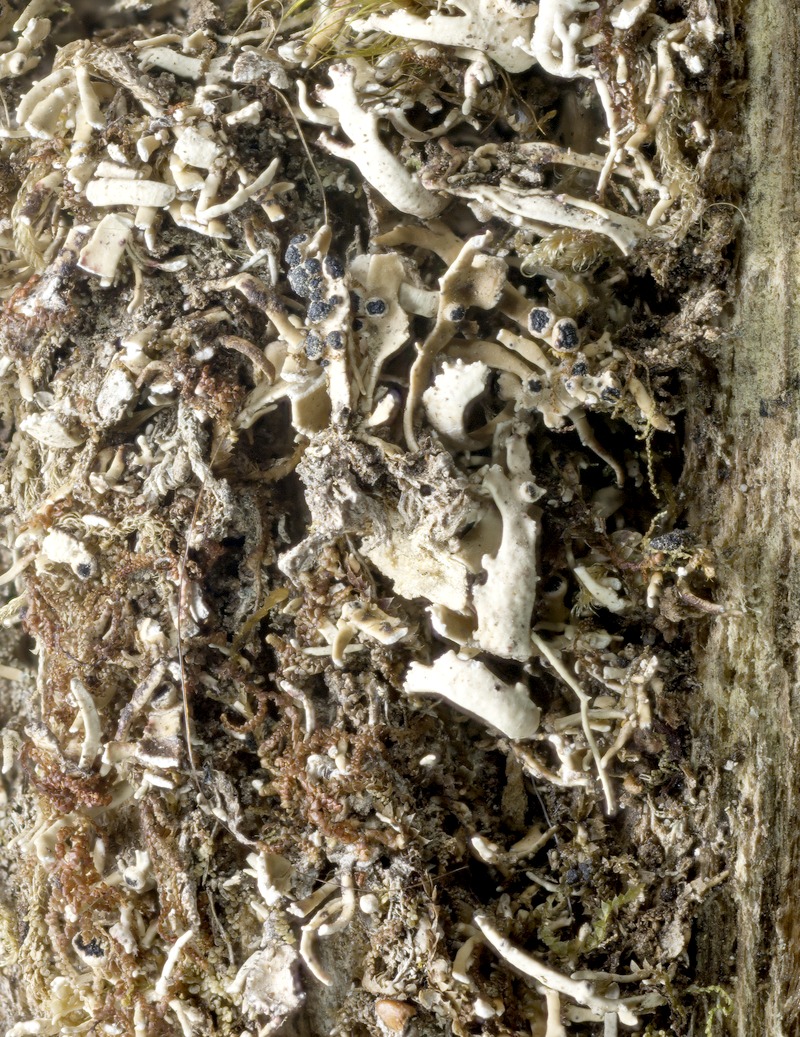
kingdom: Fungi
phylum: Ascomycota
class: Lecanoromycetes
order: Lecanorales
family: Sphaerophoraceae
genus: Bunodophoron
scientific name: Bunodophoron patagonicum
